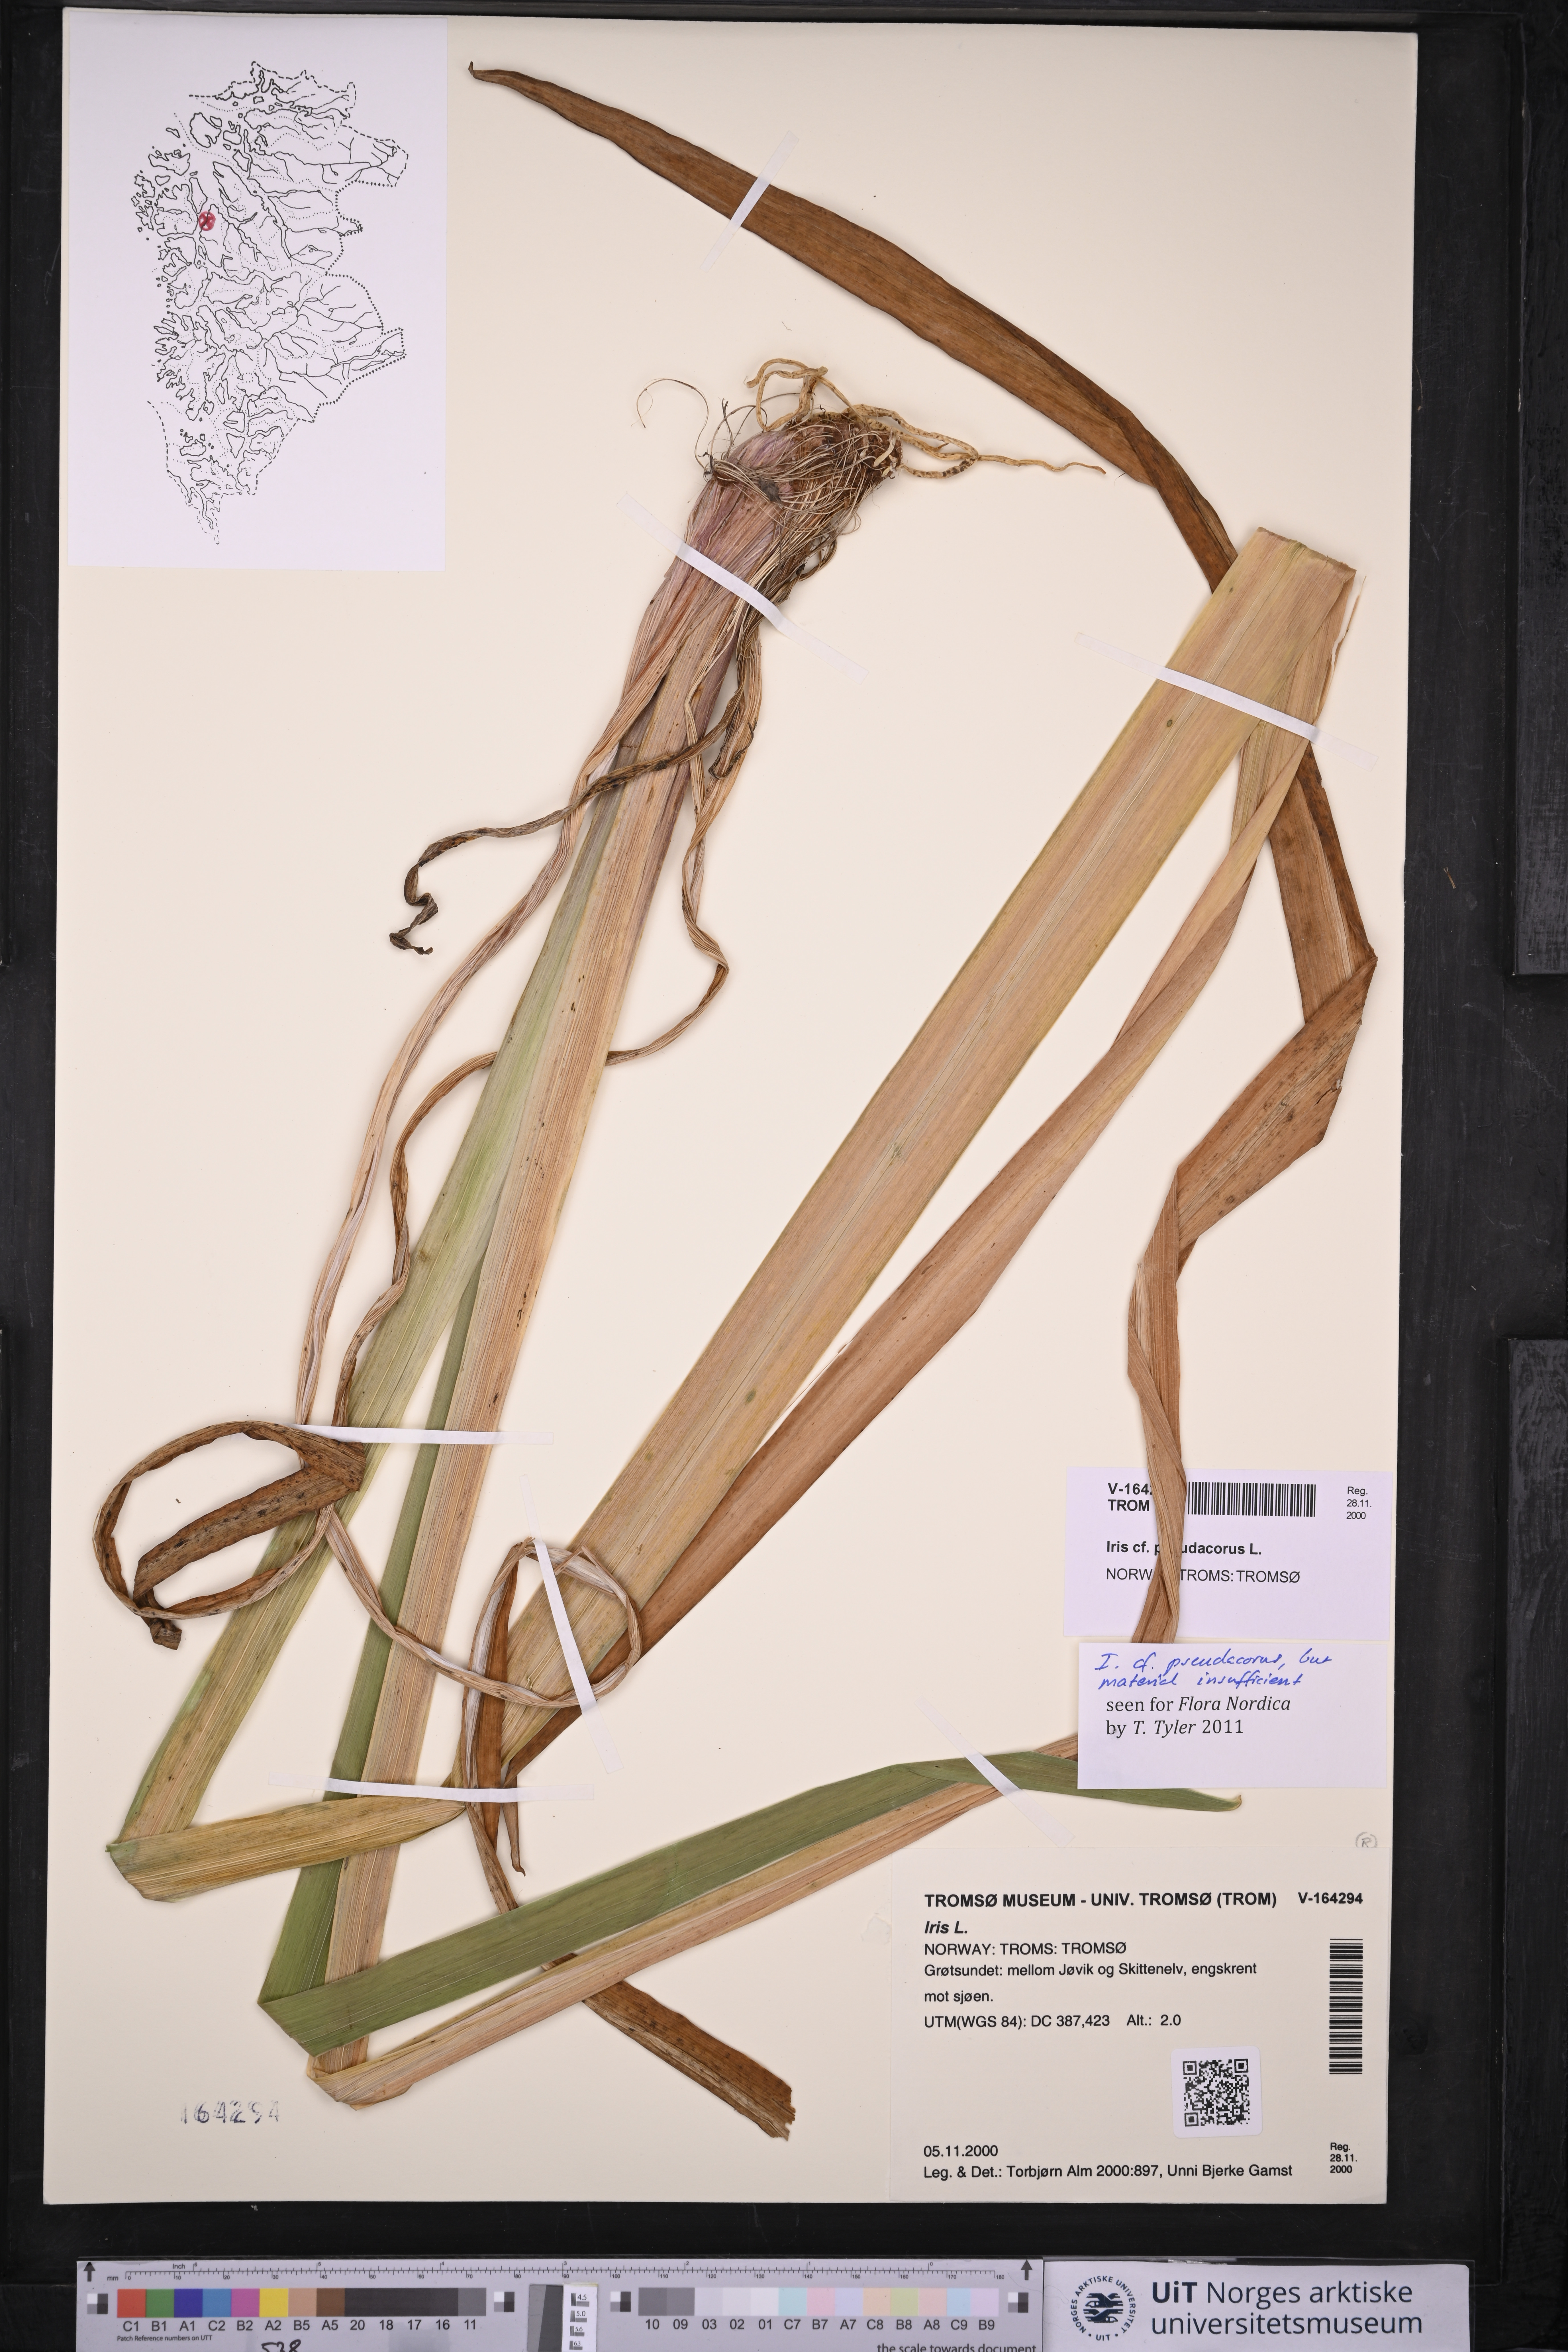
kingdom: Plantae
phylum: Tracheophyta
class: Liliopsida
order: Asparagales
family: Iridaceae
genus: Iris
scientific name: Iris pseudacorus
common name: Yellow flag
